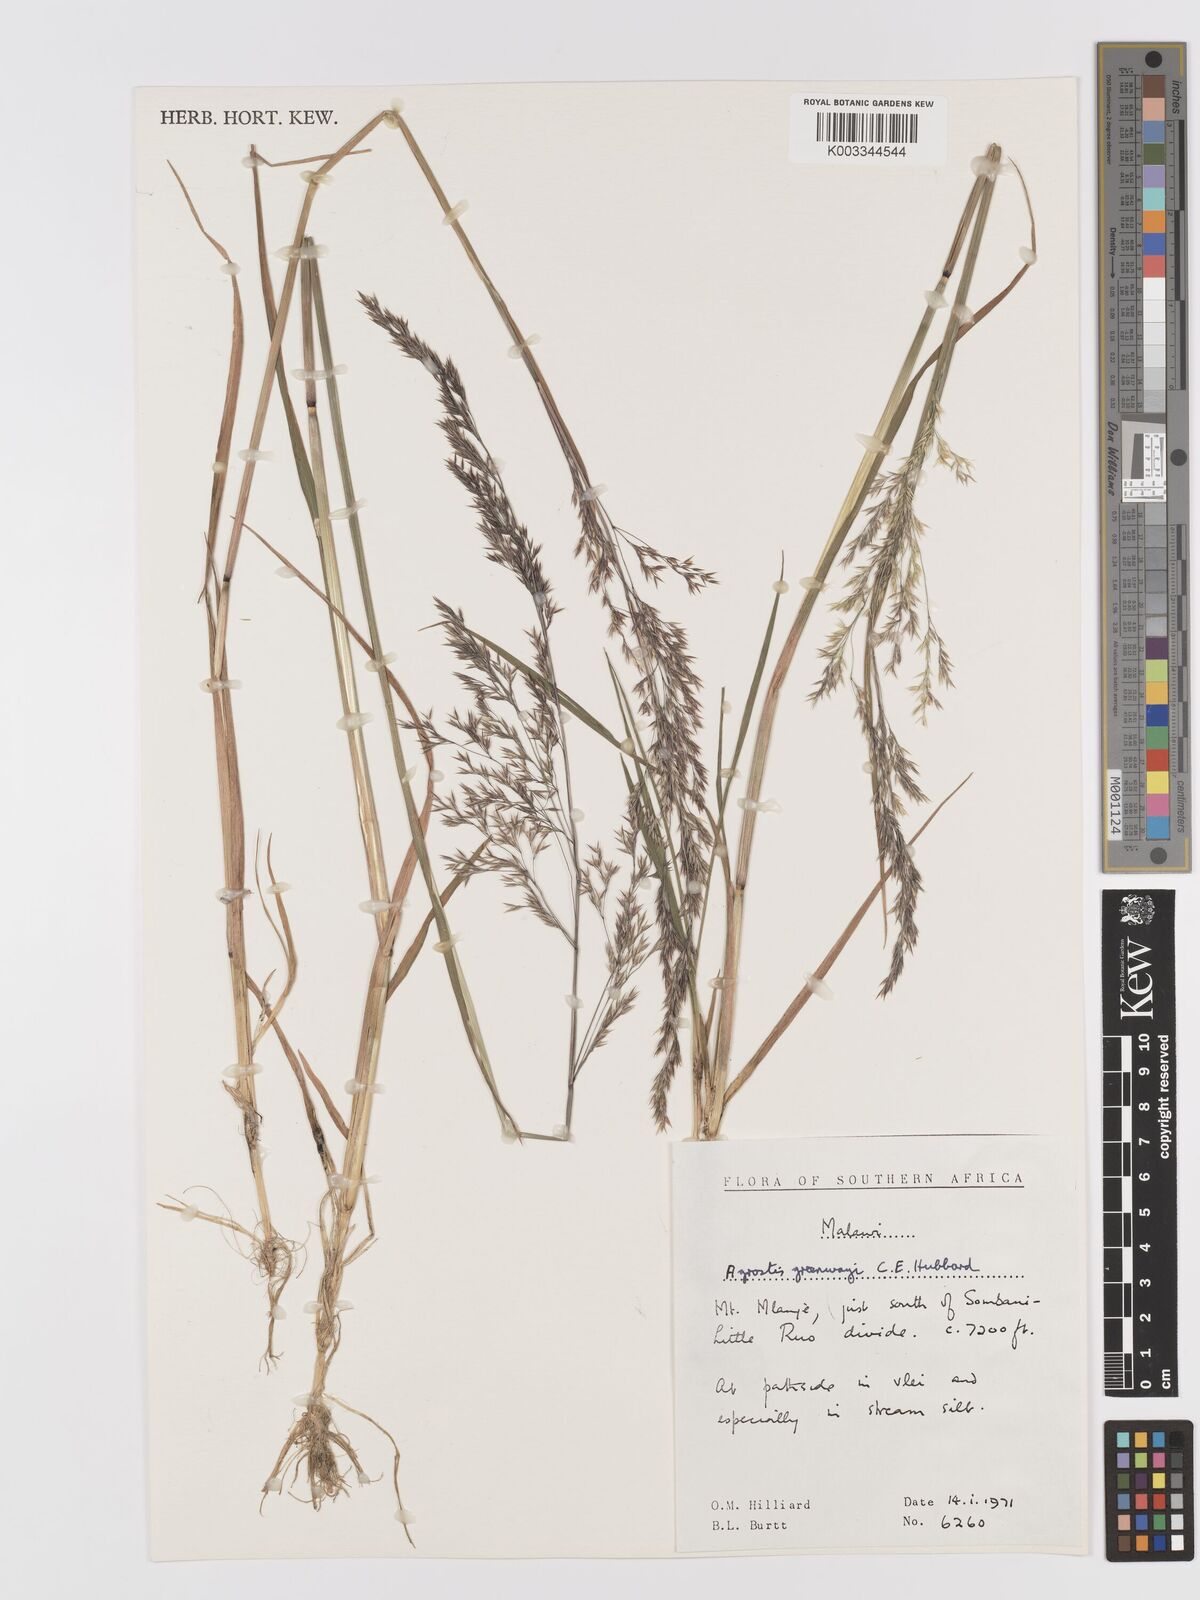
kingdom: Plantae
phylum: Tracheophyta
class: Liliopsida
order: Poales
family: Poaceae
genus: Agrostis
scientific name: Agrostis producta
